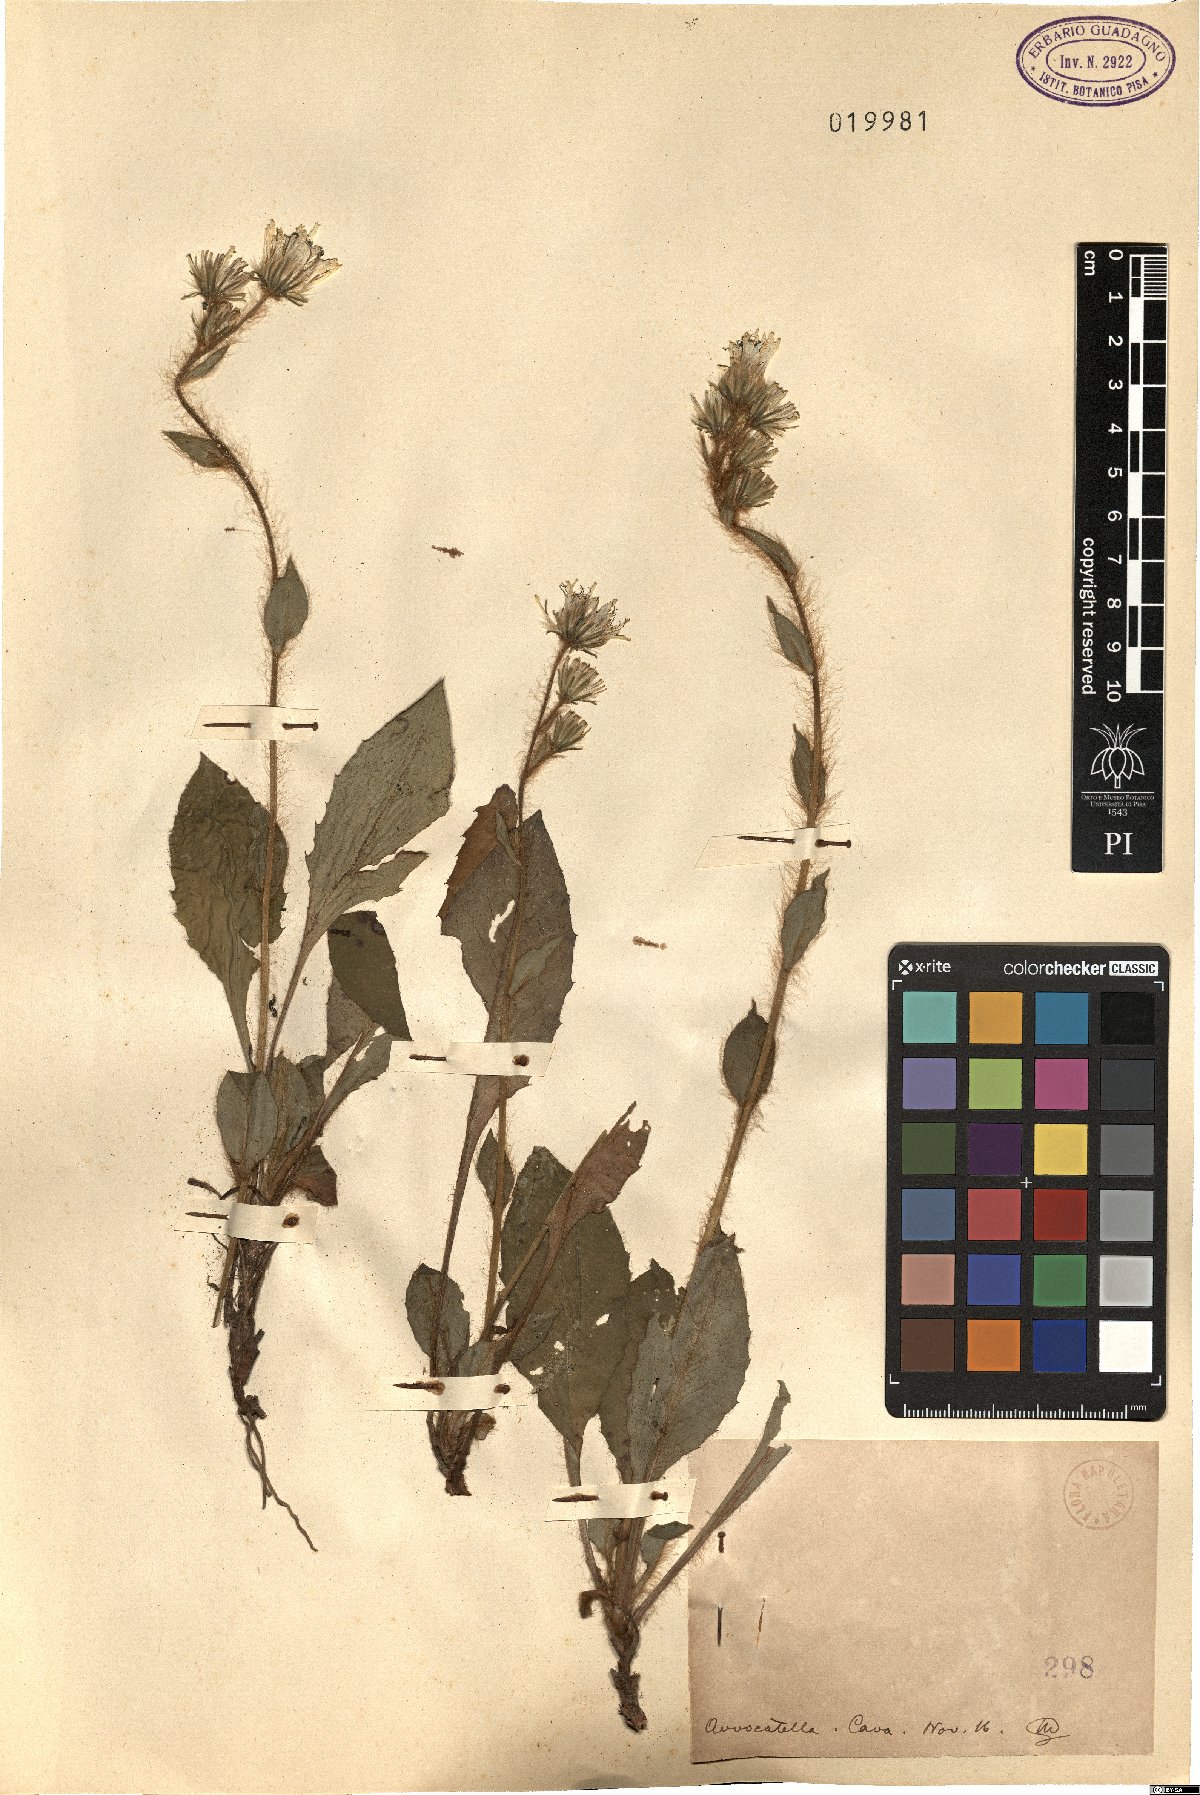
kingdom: Plantae
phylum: Tracheophyta
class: Magnoliopsida
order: Asterales
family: Asteraceae
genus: Hieracium
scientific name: Hieracium
